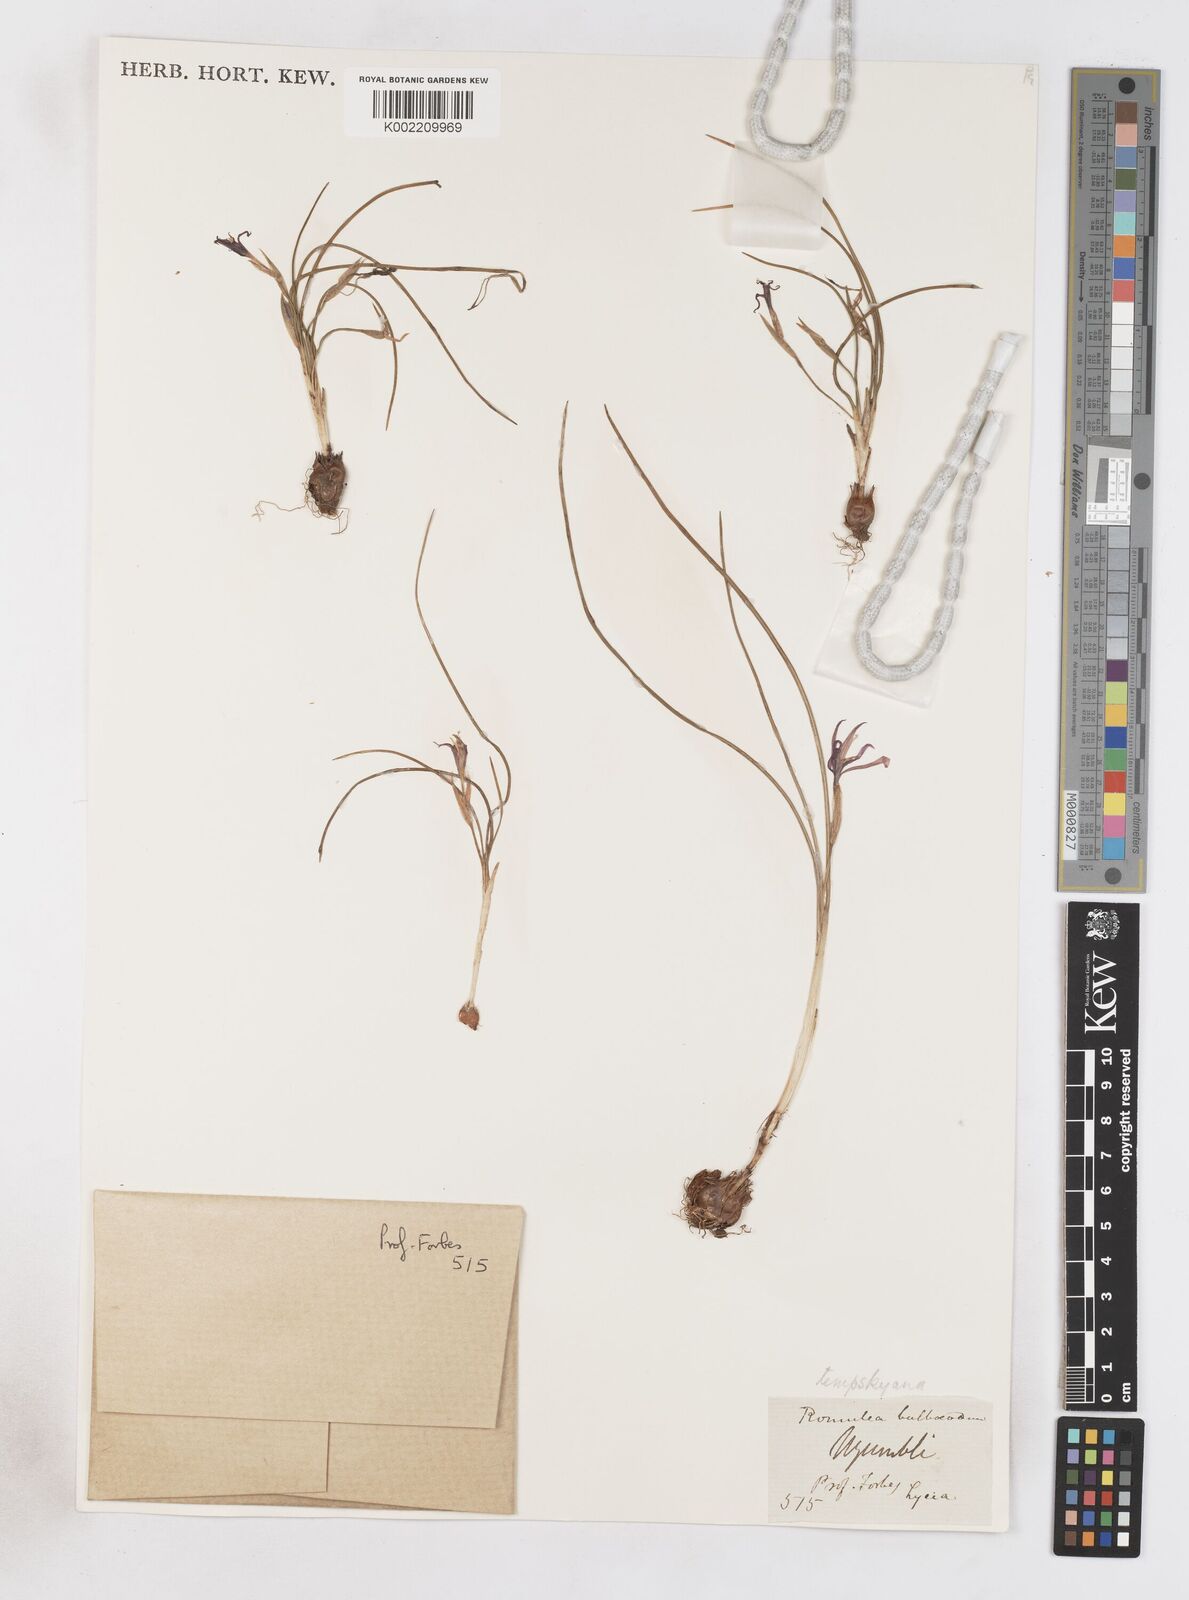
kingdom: Plantae
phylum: Tracheophyta
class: Liliopsida
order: Asparagales
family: Iridaceae
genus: Romulea
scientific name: Romulea tempskyana
